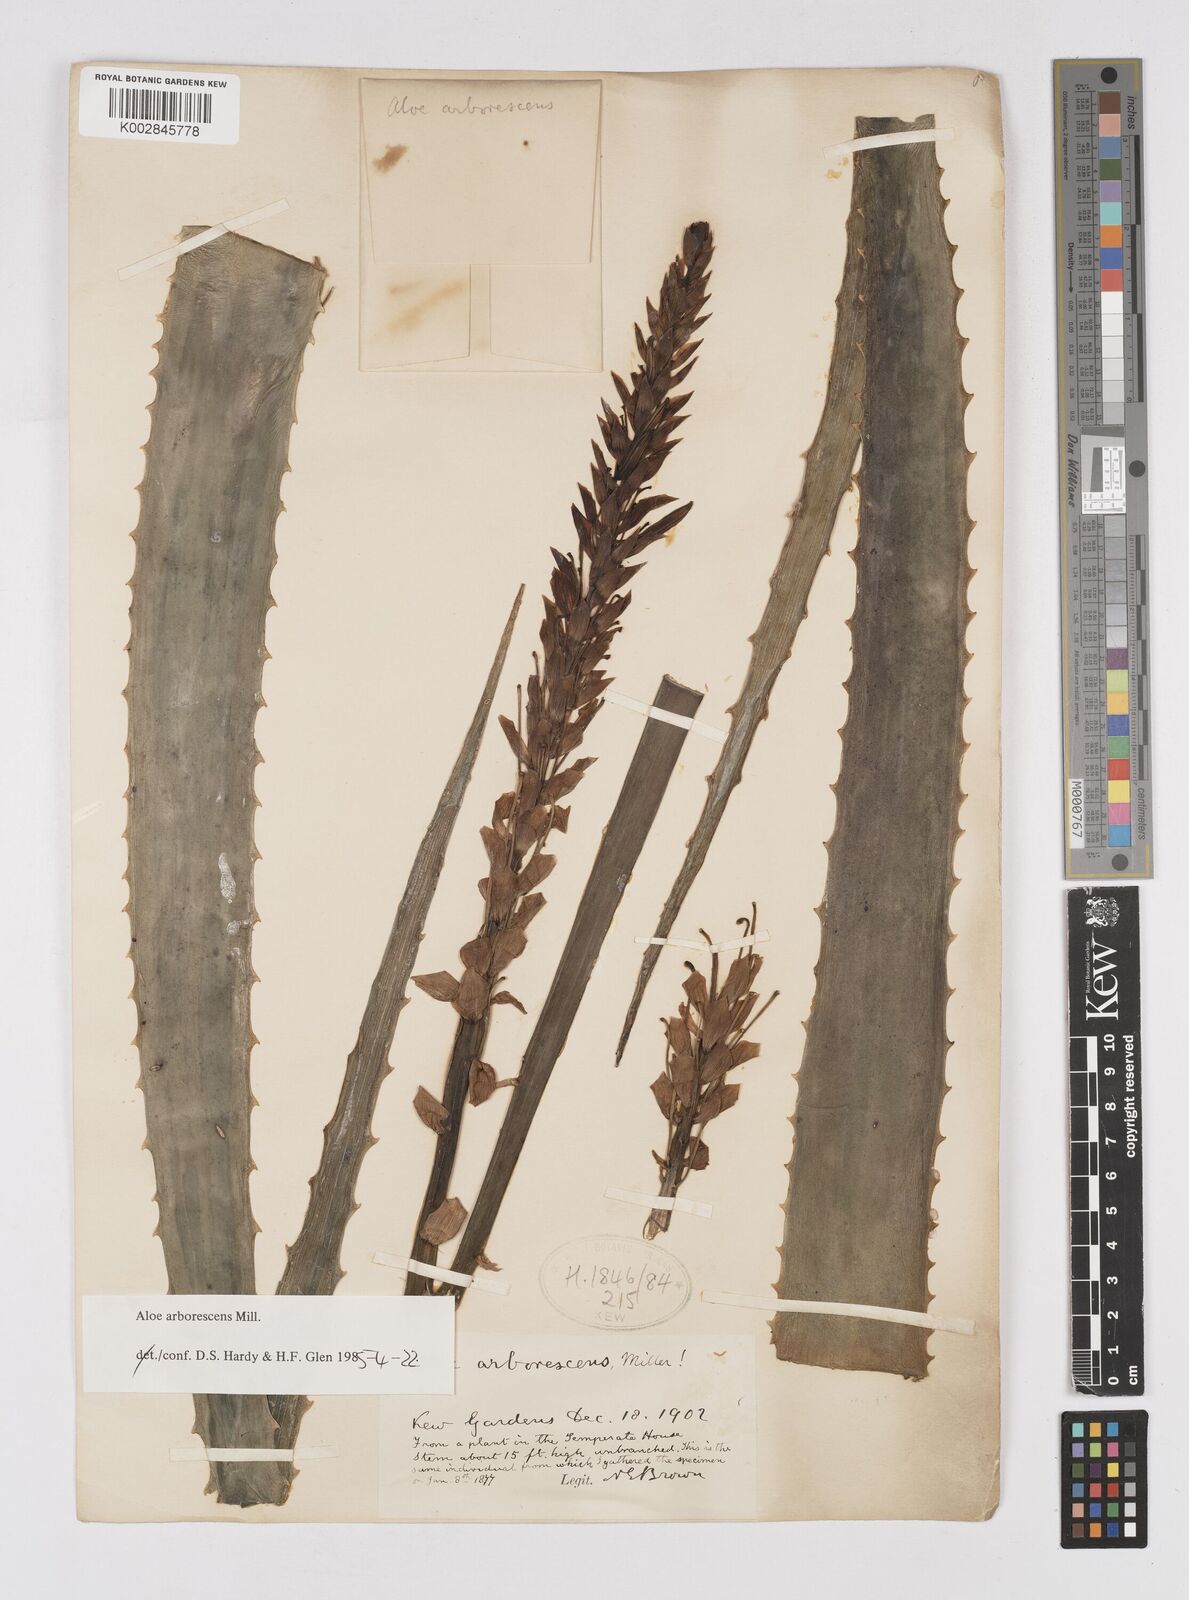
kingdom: Plantae
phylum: Tracheophyta
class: Liliopsida
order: Asparagales
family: Asphodelaceae
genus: Aloe
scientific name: Aloe vera
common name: Barbados aloe
